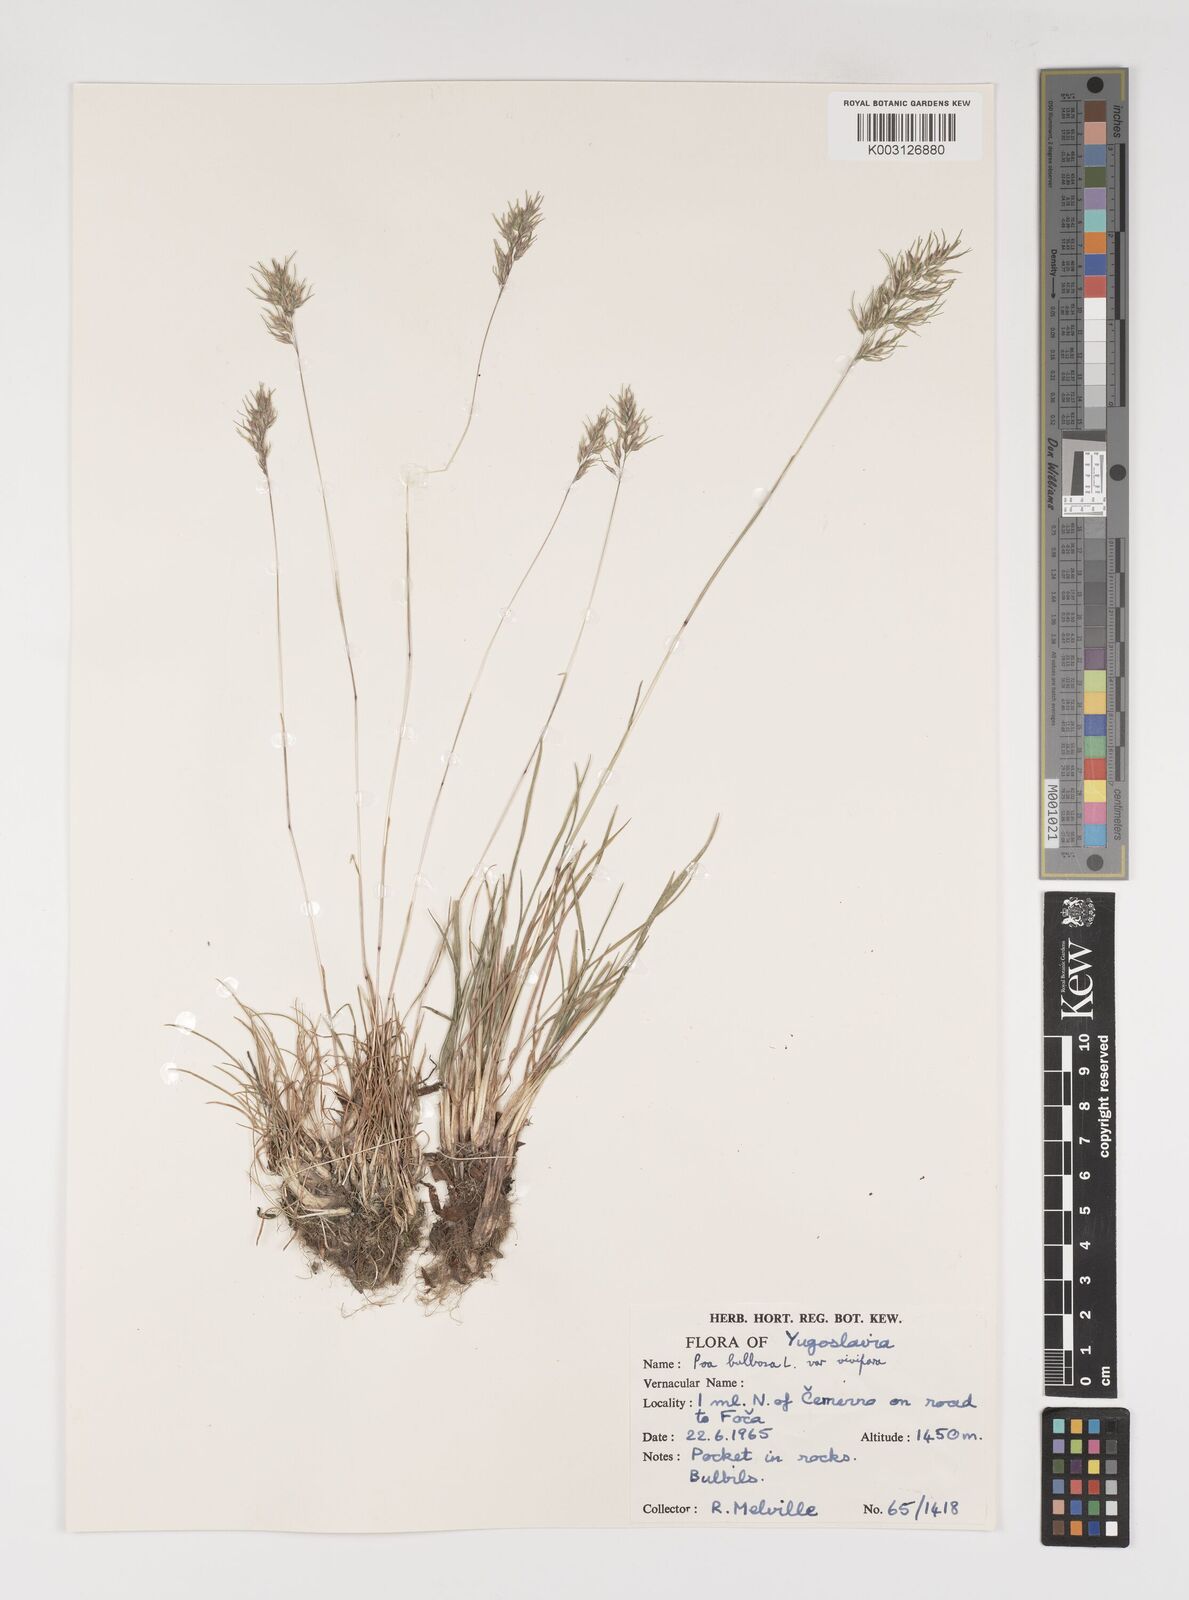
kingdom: Plantae
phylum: Tracheophyta
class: Liliopsida
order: Poales
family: Poaceae
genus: Poa
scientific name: Poa bulbosa
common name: Bulbous bluegrass
